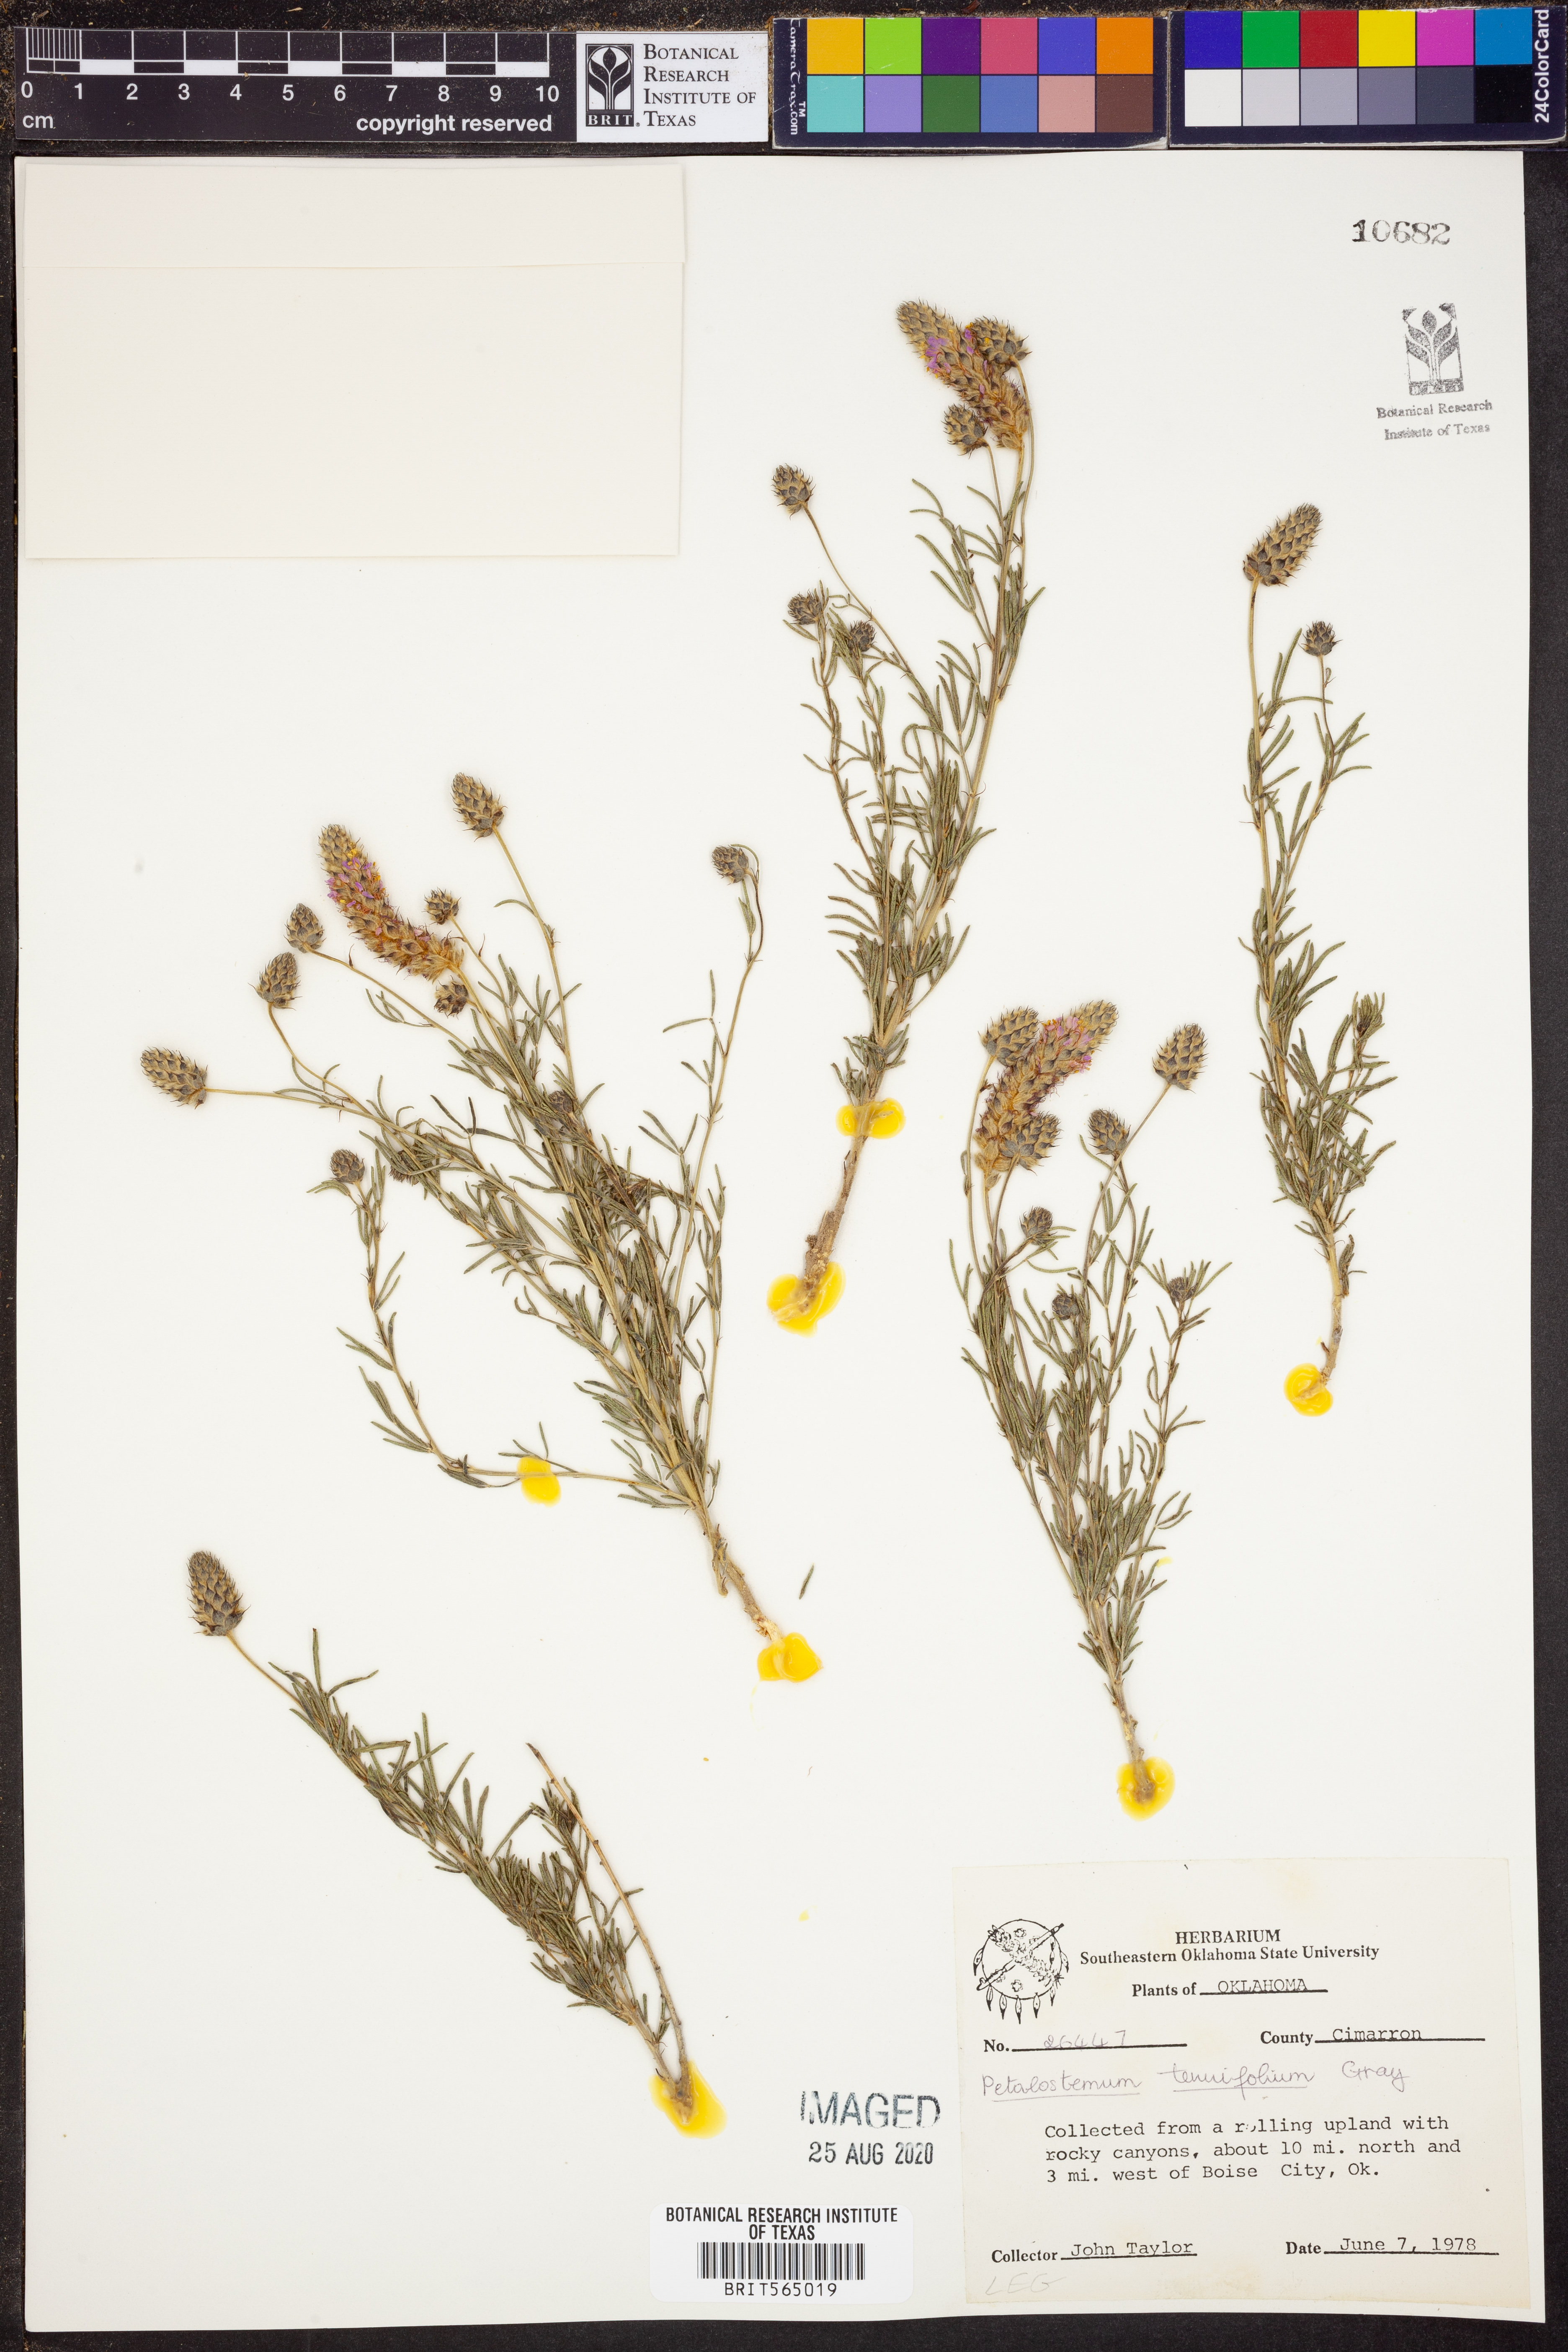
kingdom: Plantae
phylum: Tracheophyta
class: Magnoliopsida
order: Fabales
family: Fabaceae
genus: Dalea
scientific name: Dalea tenuifolia
